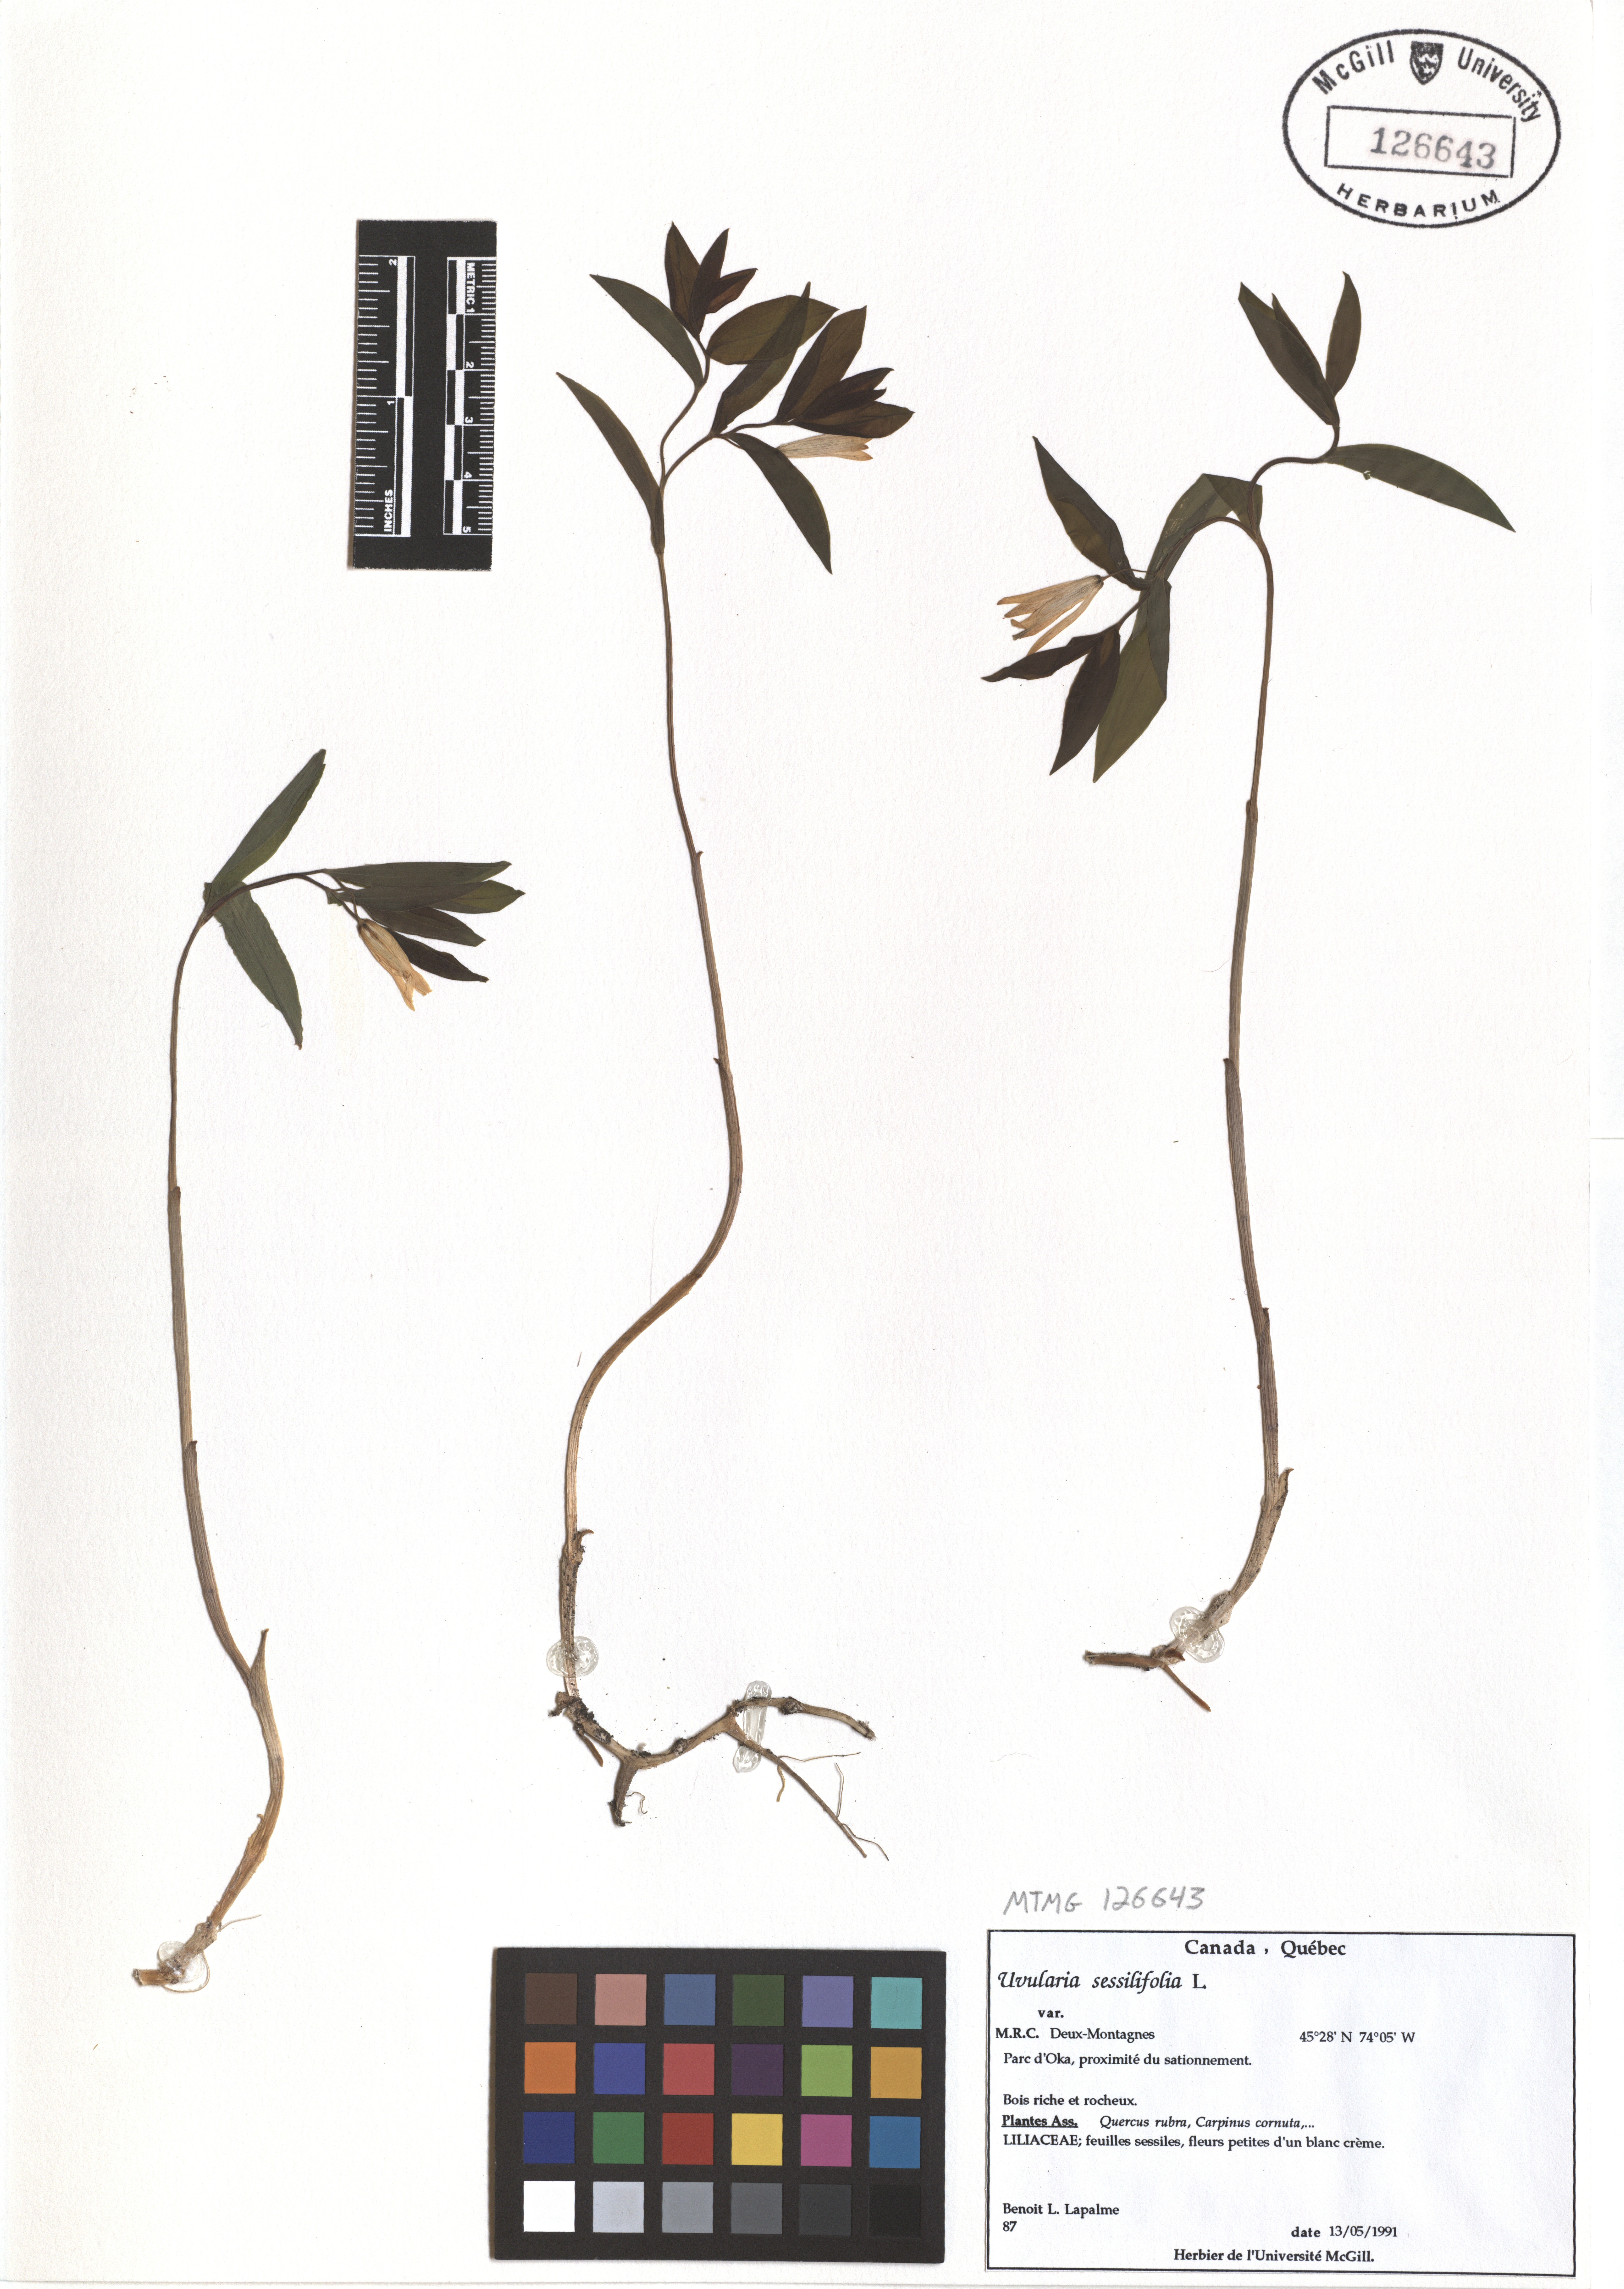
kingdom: Plantae
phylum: Tracheophyta
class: Liliopsida
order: Liliales
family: Colchicaceae
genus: Uvularia
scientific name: Uvularia sessilifolia
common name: Straw-lily
